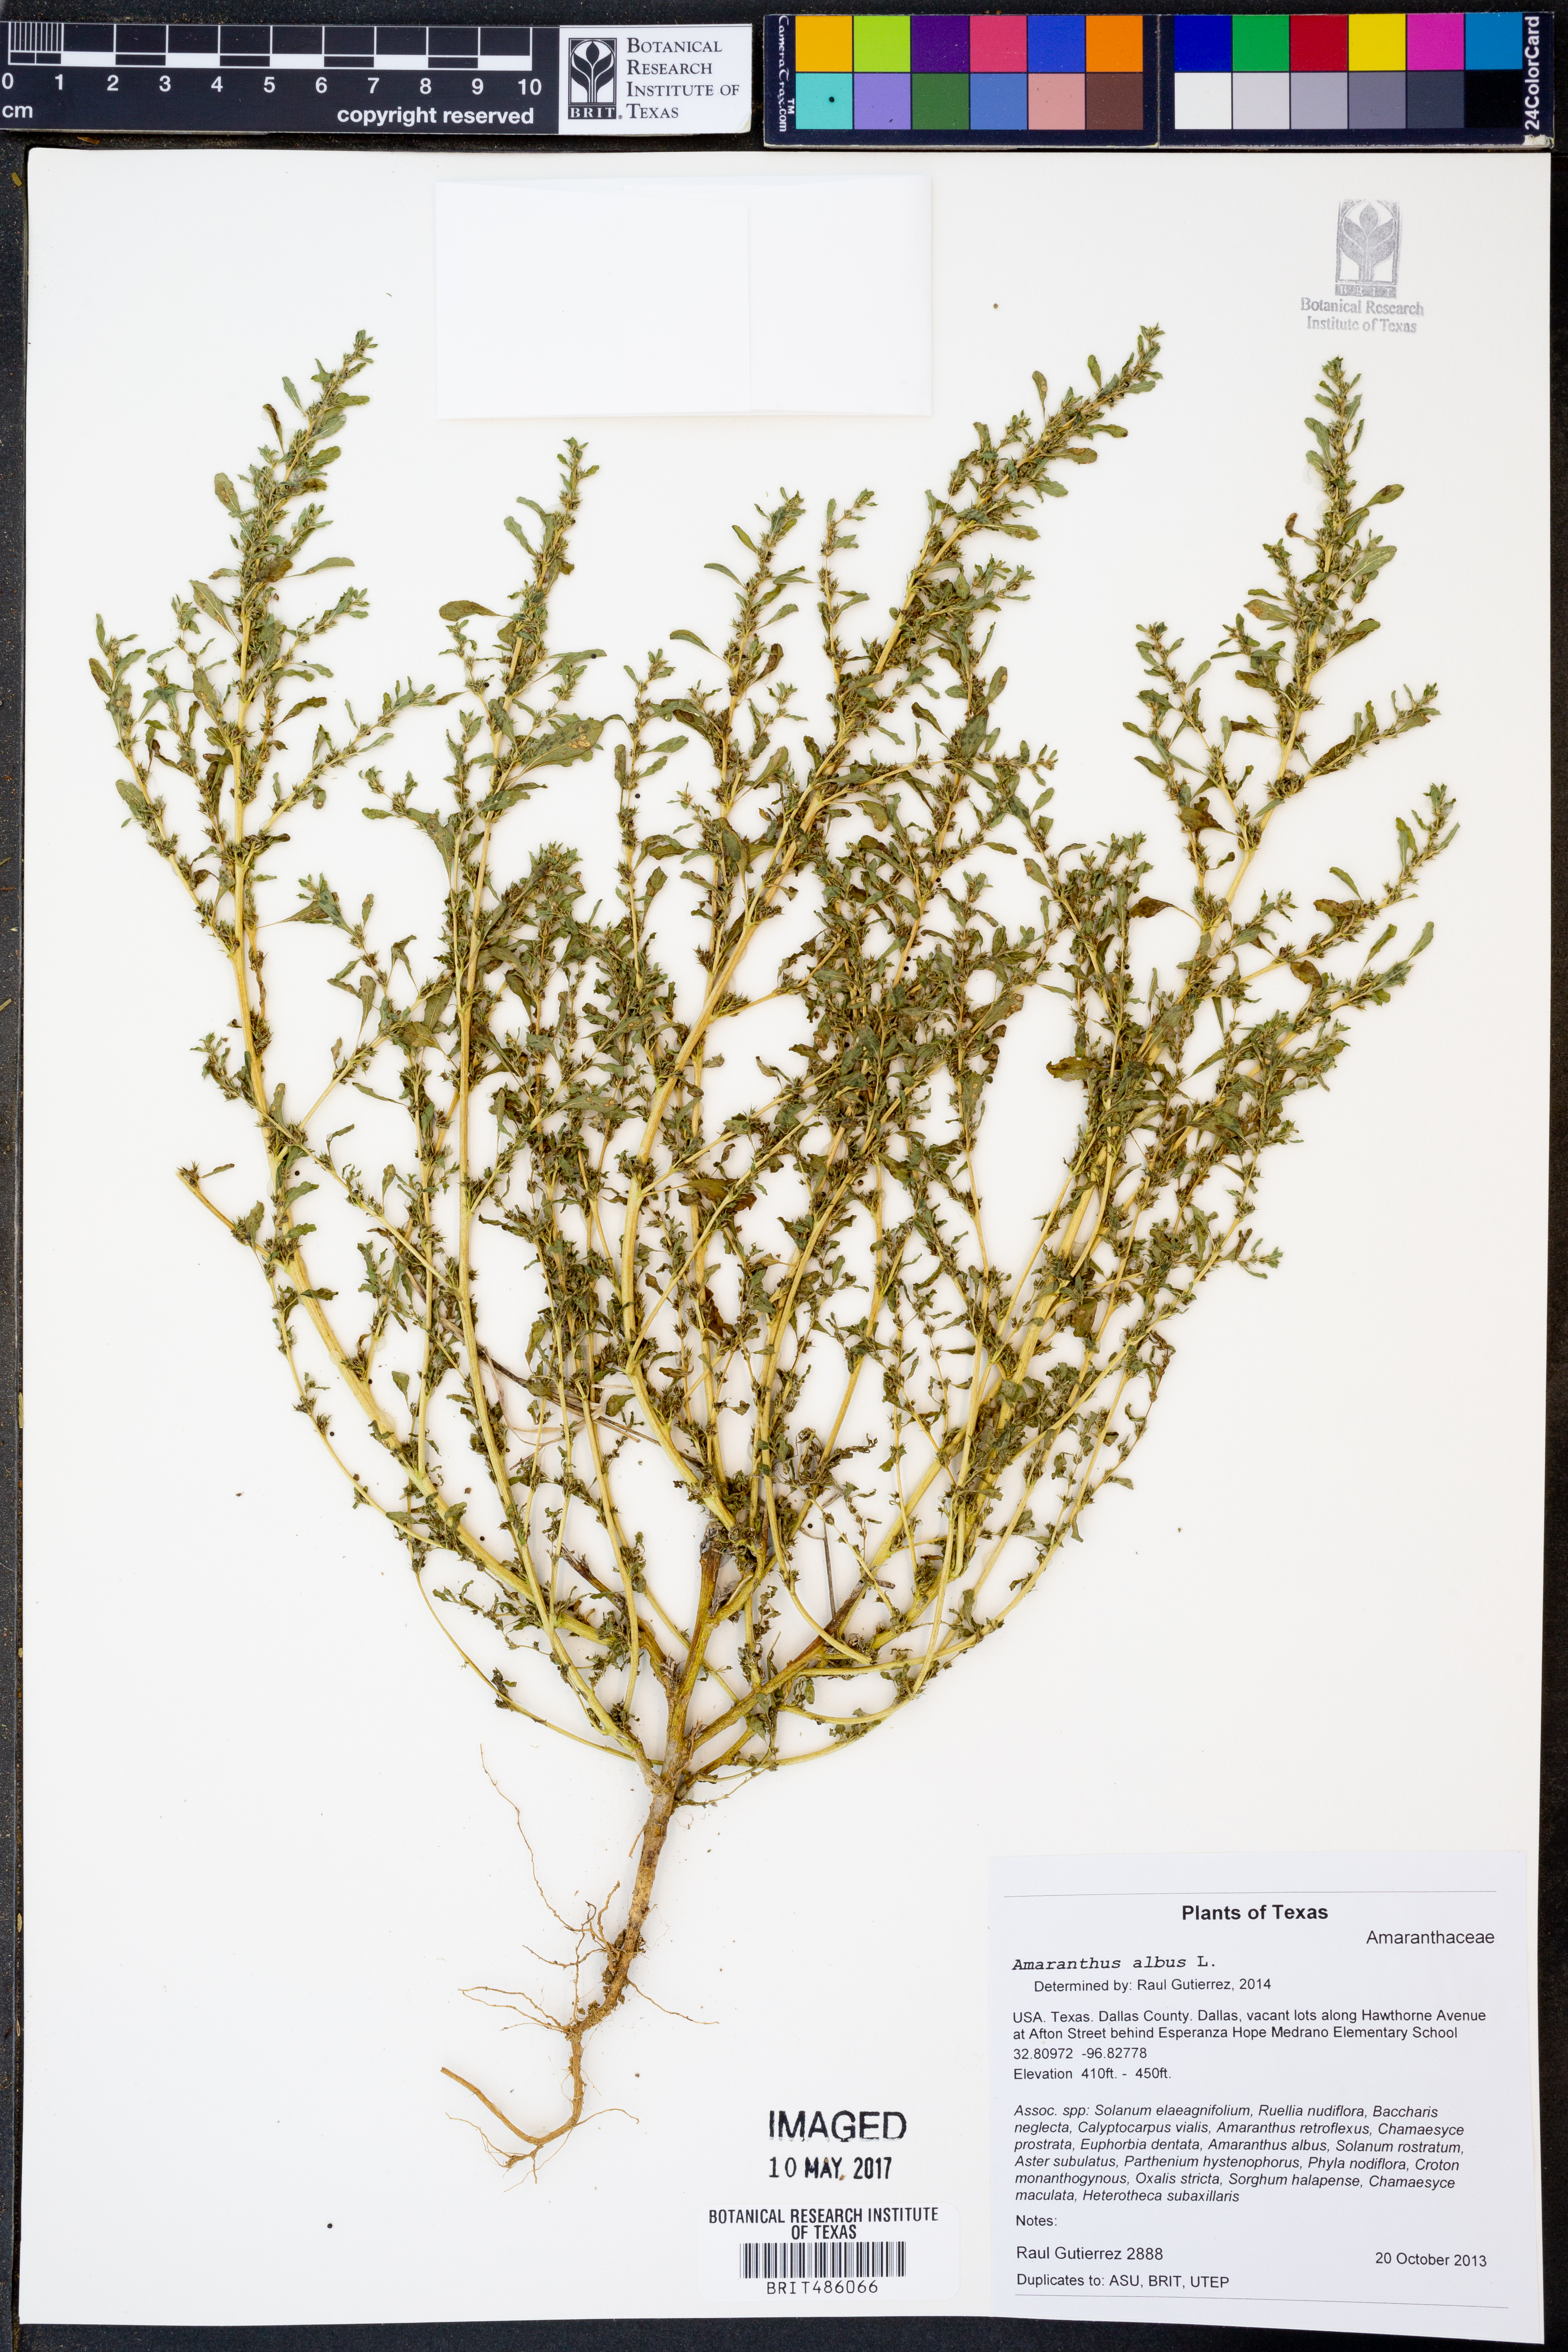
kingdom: Plantae
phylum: Tracheophyta
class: Magnoliopsida
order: Caryophyllales
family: Amaranthaceae
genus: Amaranthus
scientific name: Amaranthus albus
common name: White pigweed
